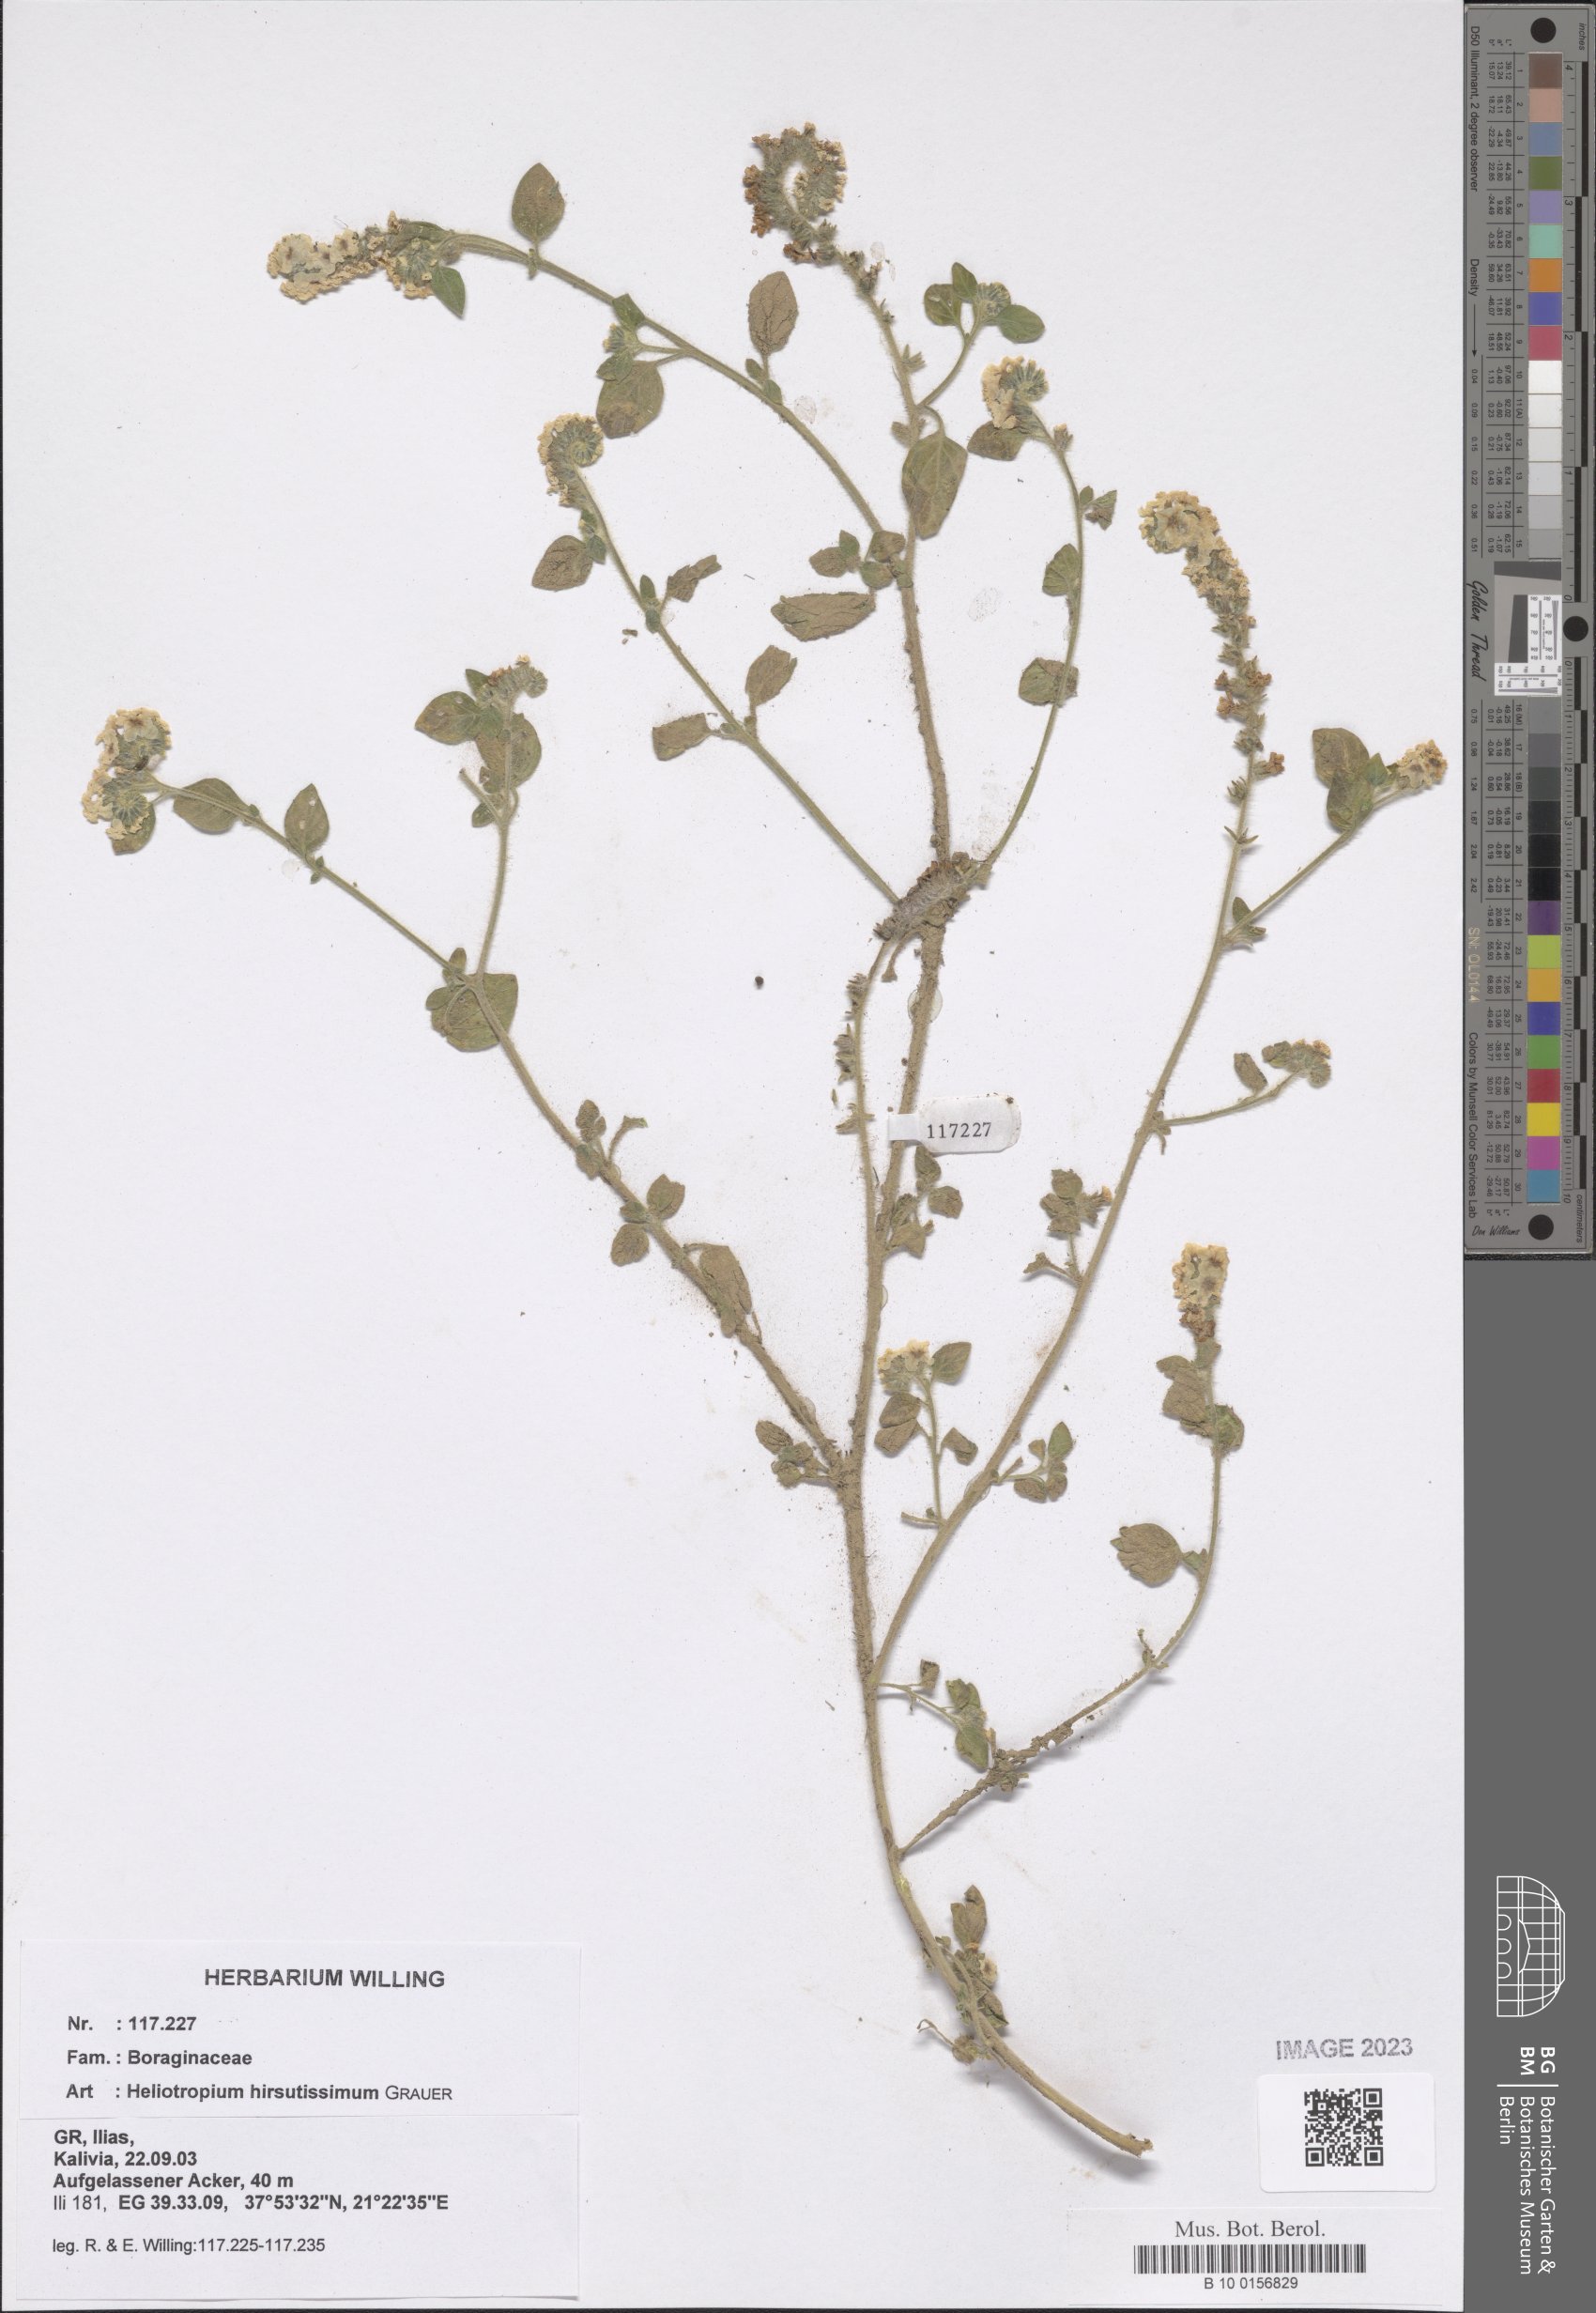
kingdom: Plantae
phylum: Tracheophyta
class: Magnoliopsida
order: Boraginales
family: Heliotropiaceae
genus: Heliotropium
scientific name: Heliotropium hirsutissimum
